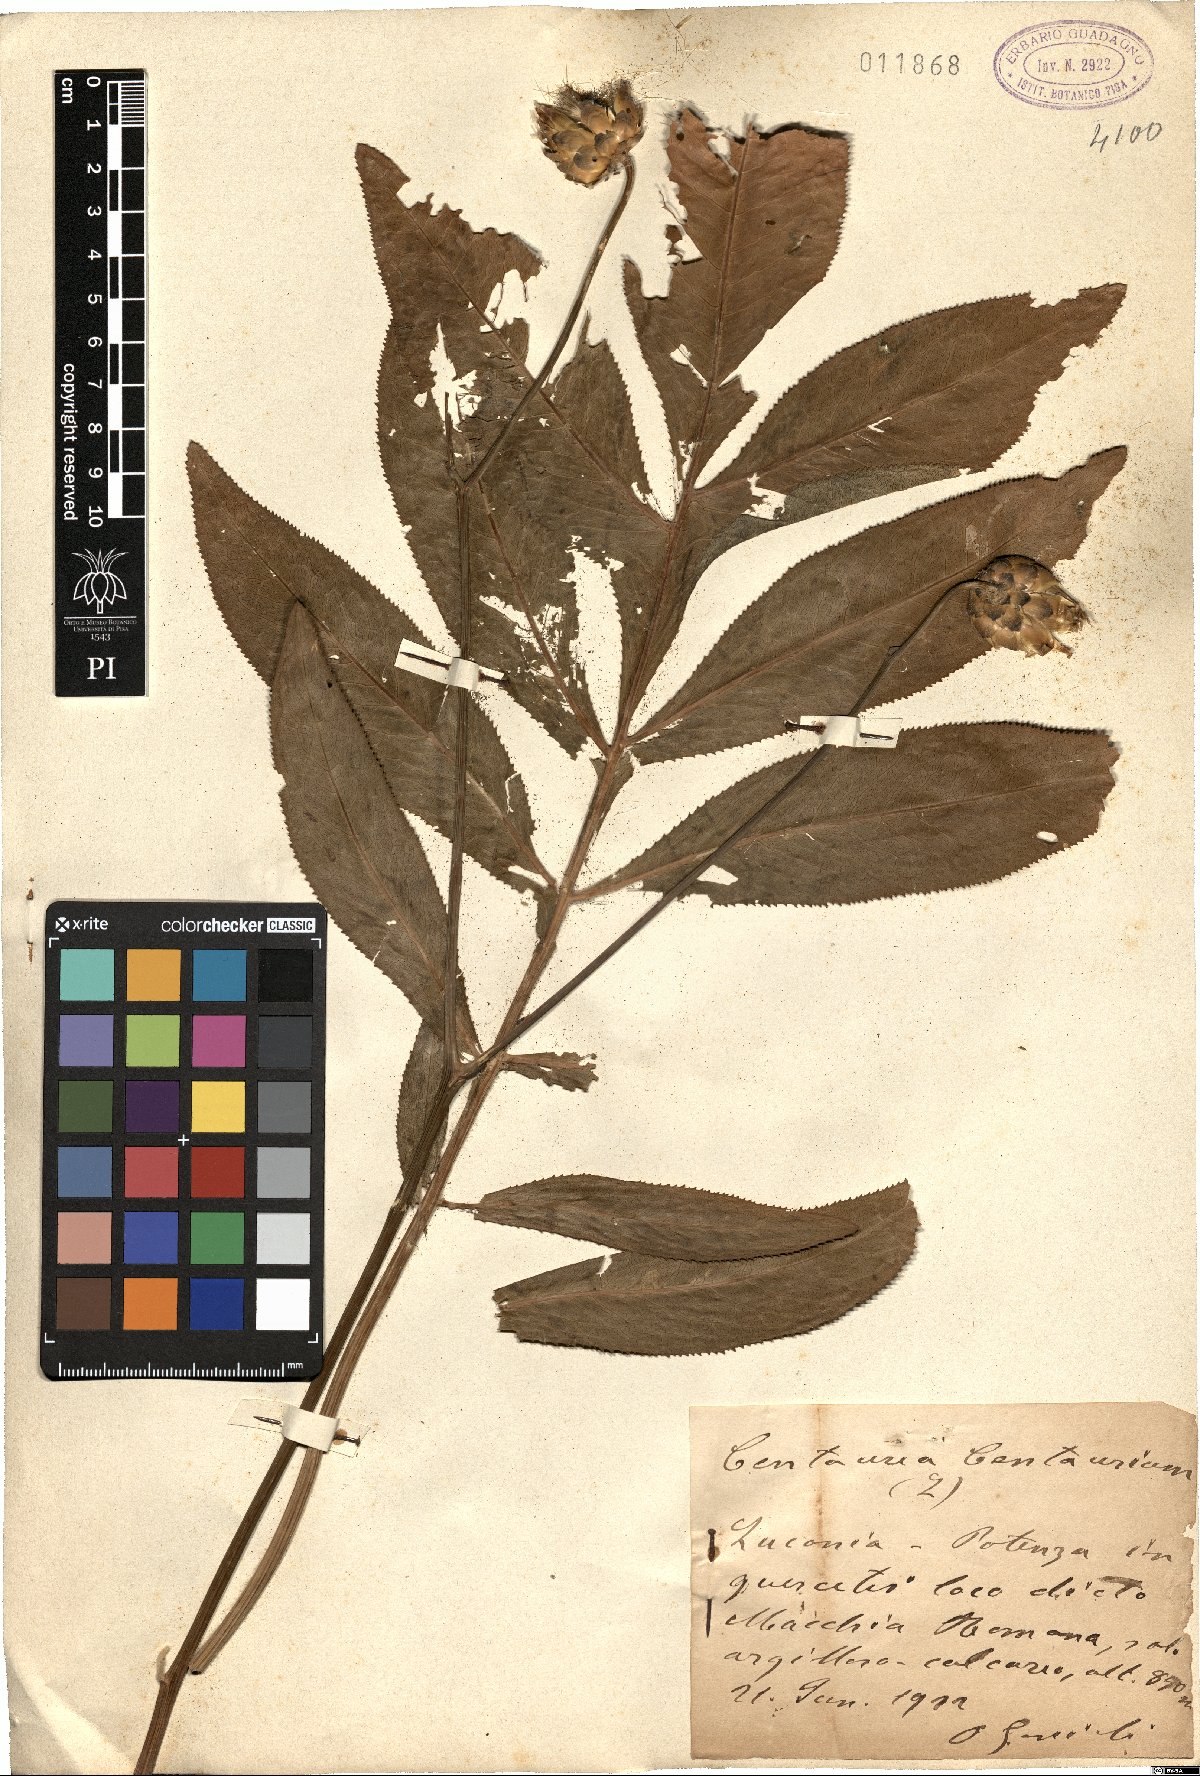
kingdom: Plantae
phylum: Tracheophyta
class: Magnoliopsida
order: Asterales
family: Asteraceae
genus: Rhaponticoides
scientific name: Rhaponticoides centaurium
